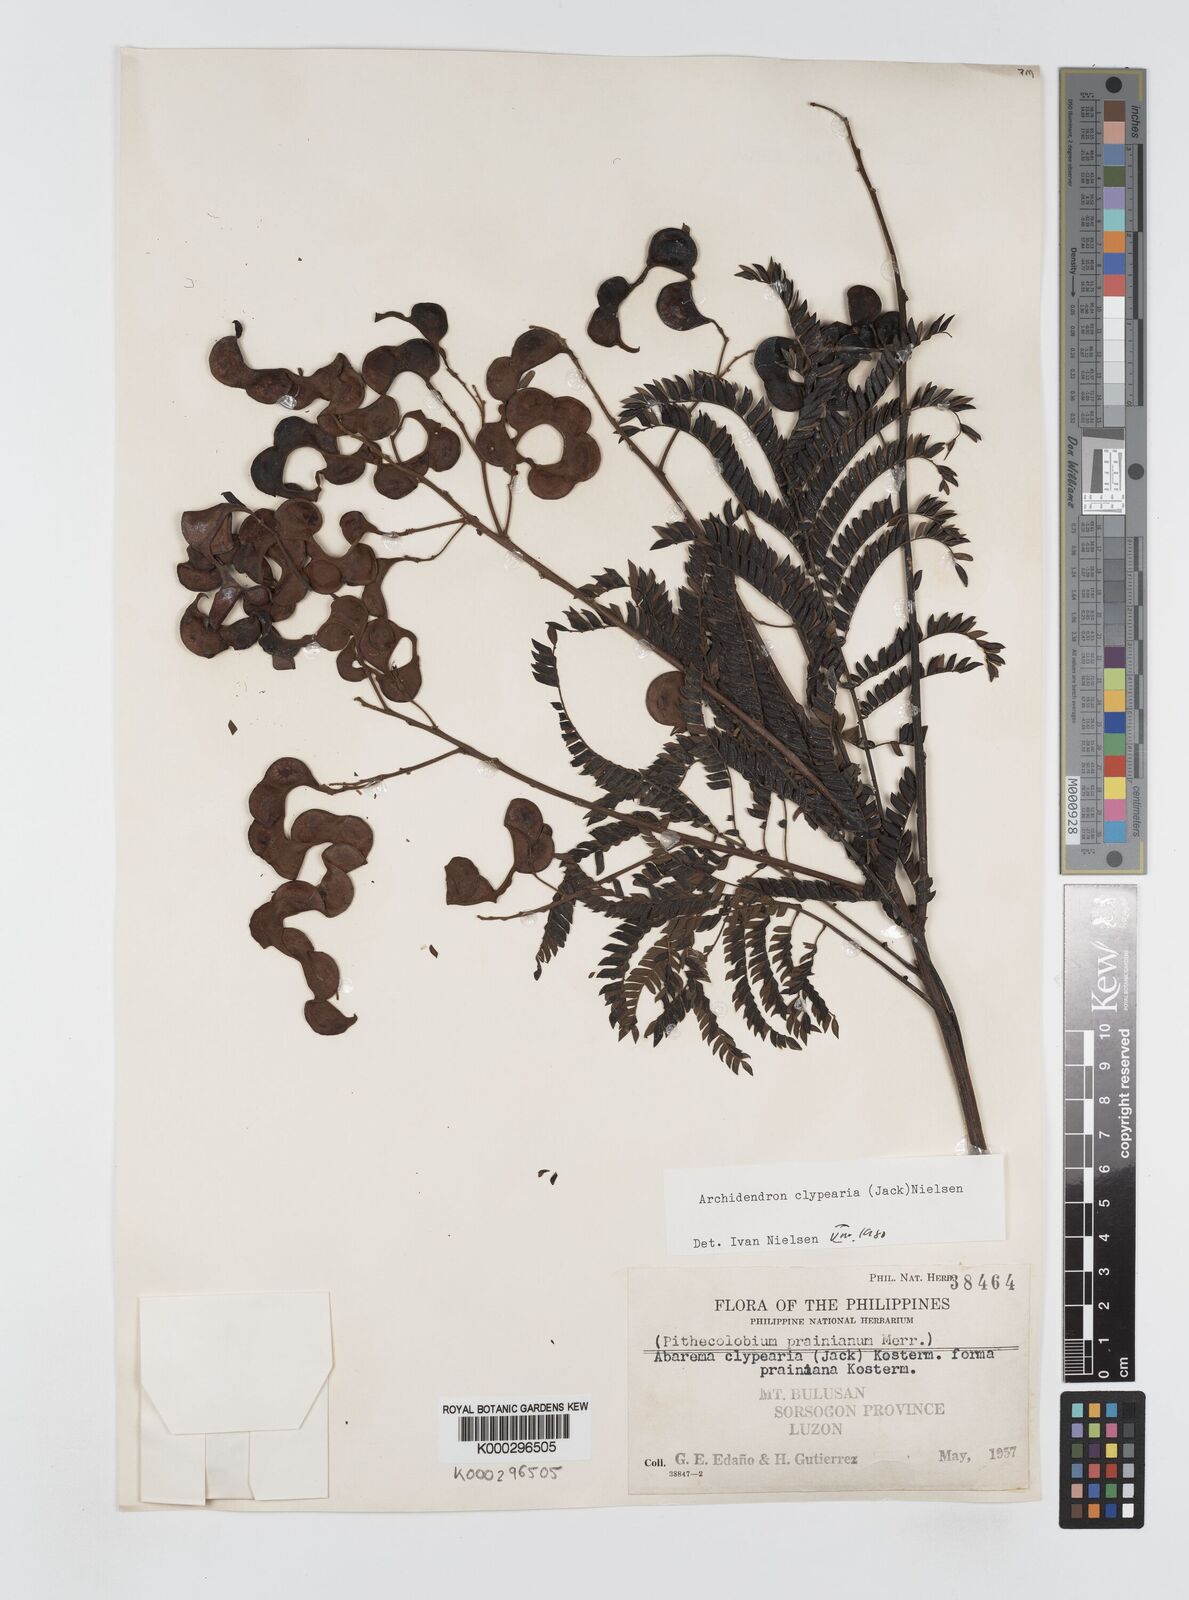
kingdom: Plantae
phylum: Tracheophyta
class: Magnoliopsida
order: Fabales
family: Fabaceae
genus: Archidendron
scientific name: Archidendron clypearia
